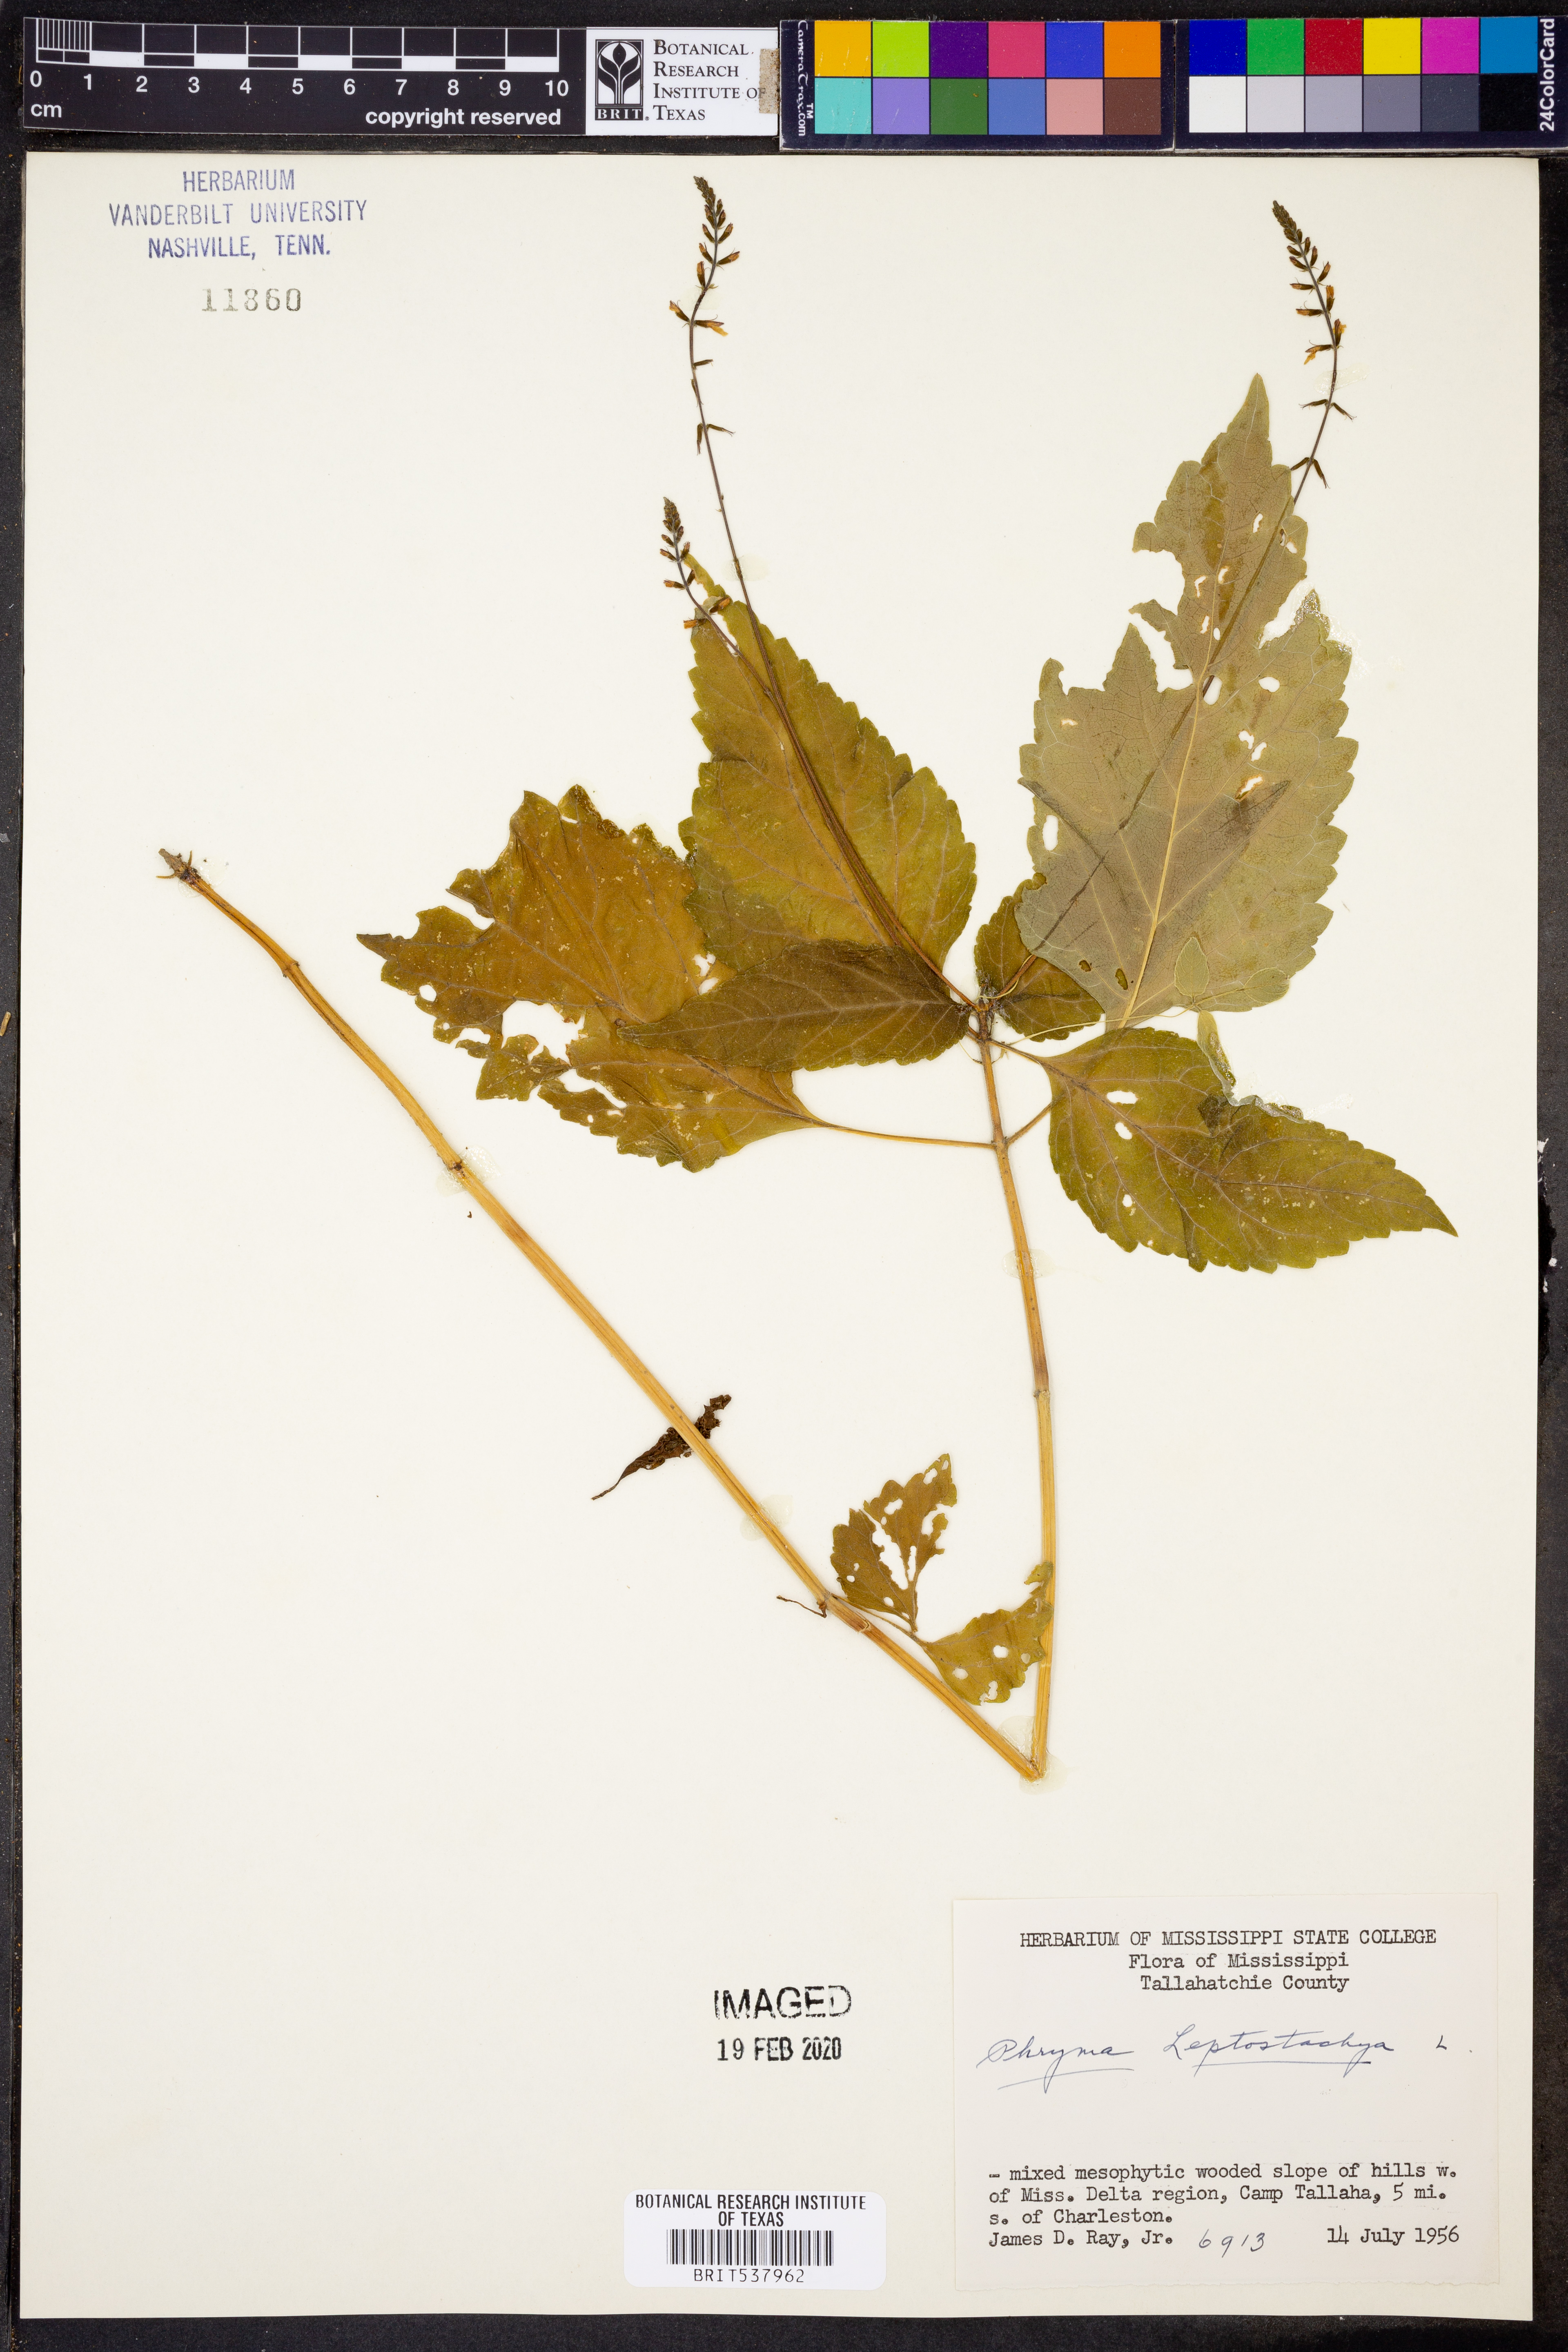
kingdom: Plantae
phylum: Tracheophyta
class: Magnoliopsida
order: Lamiales
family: Phrymaceae
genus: Phryma
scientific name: Phryma leptostachya
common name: American lopseed
